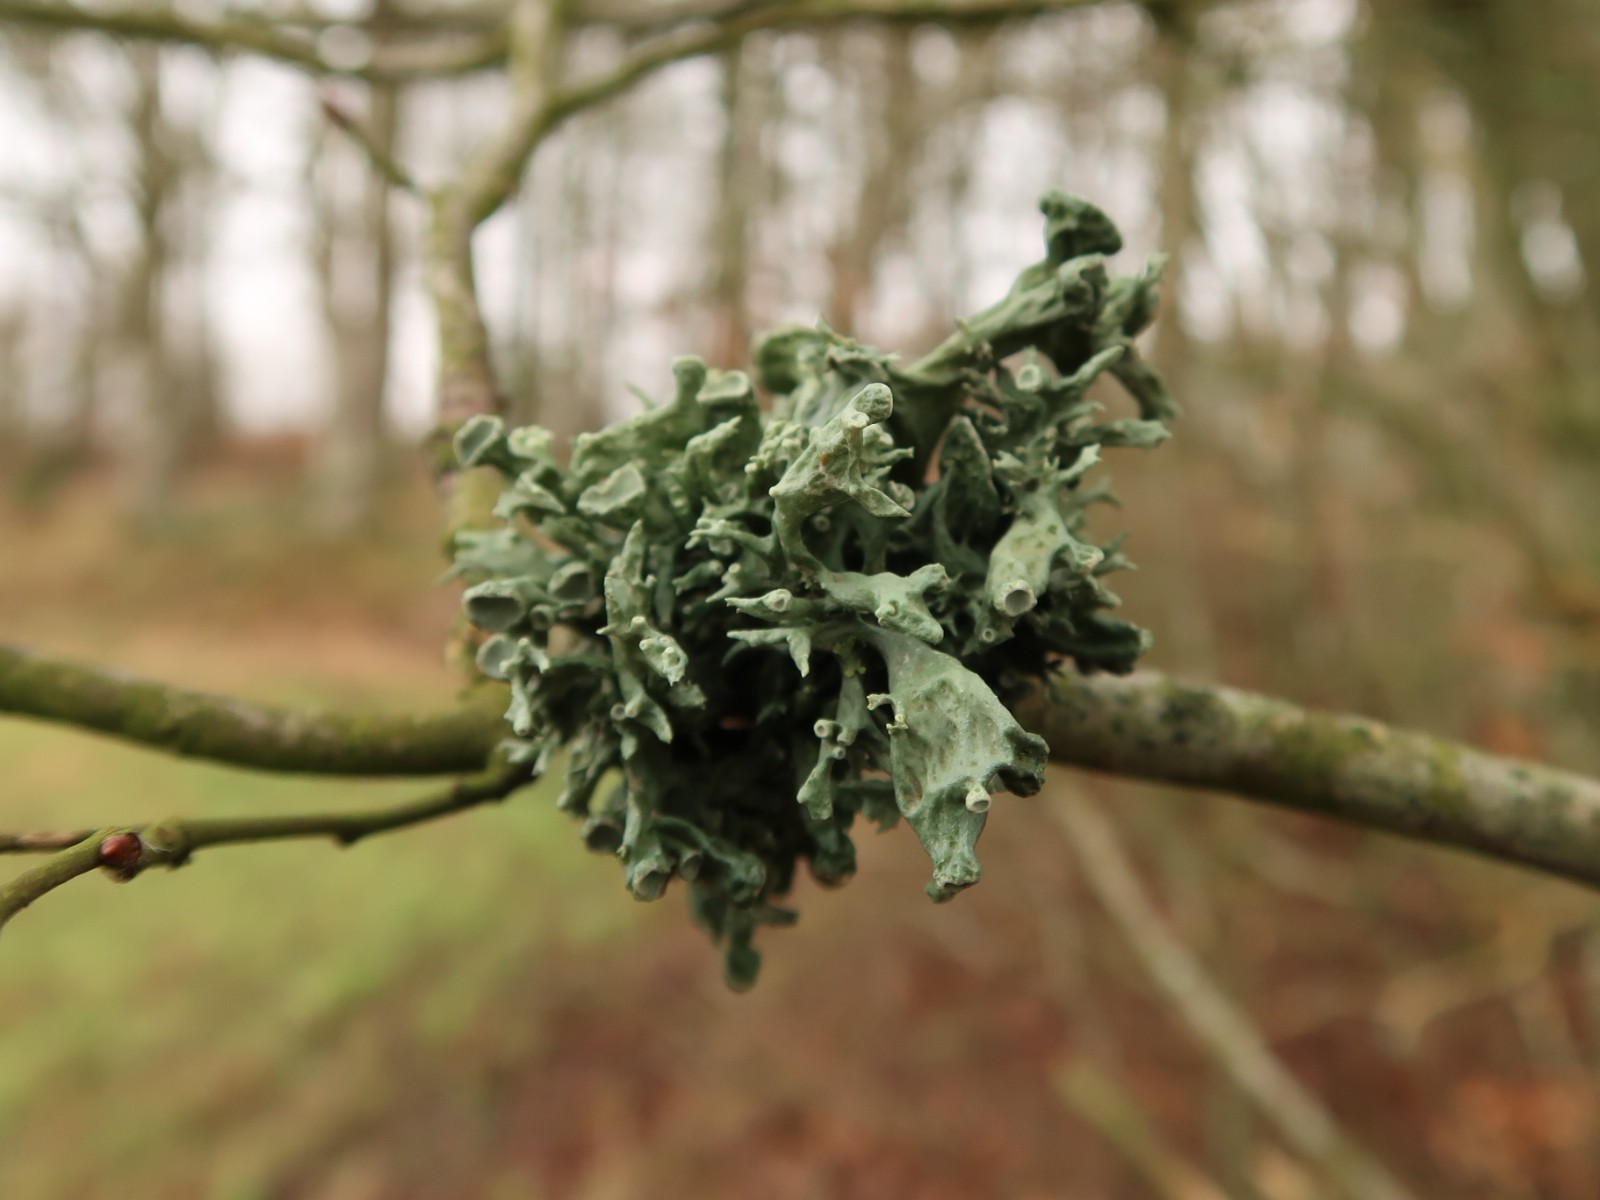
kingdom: Fungi
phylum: Ascomycota
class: Lecanoromycetes
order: Lecanorales
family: Ramalinaceae
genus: Ramalina
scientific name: Ramalina fastigiata
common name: tue-grenlav
